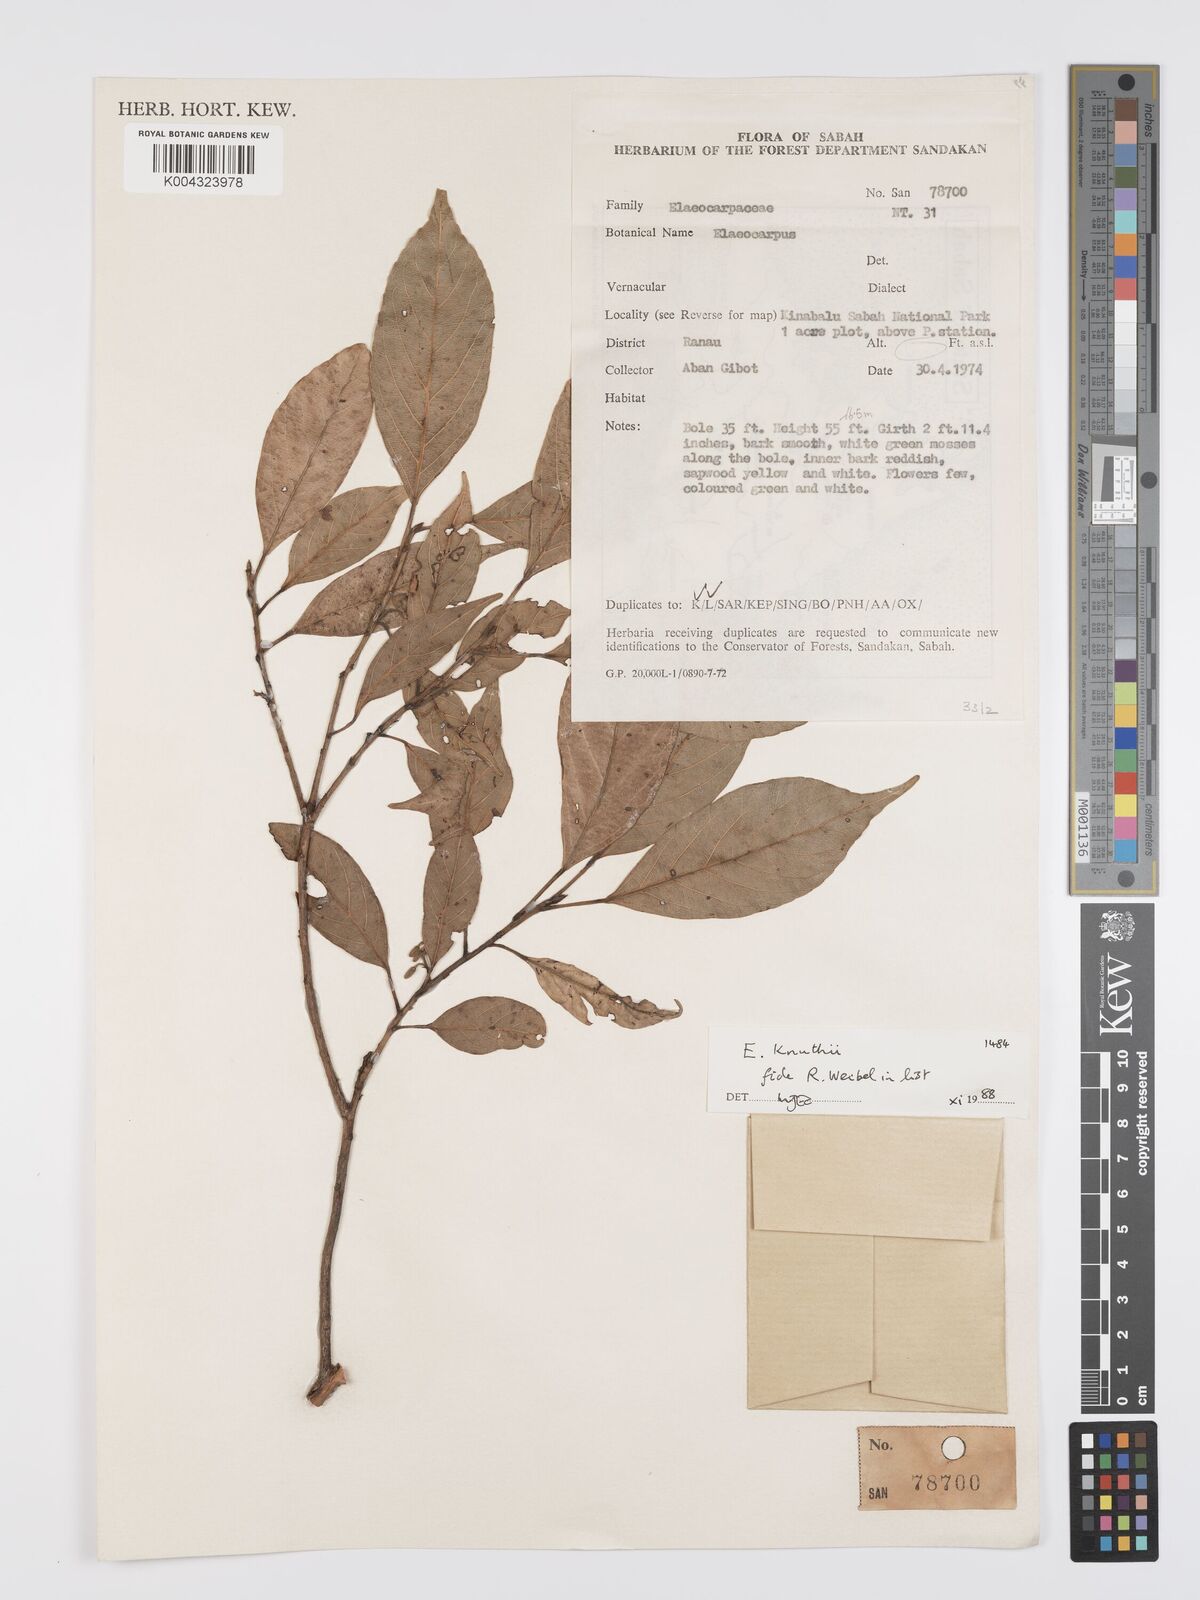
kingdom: Plantae
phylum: Tracheophyta
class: Magnoliopsida
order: Oxalidales
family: Elaeocarpaceae
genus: Elaeocarpus
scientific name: Elaeocarpus knuthii
